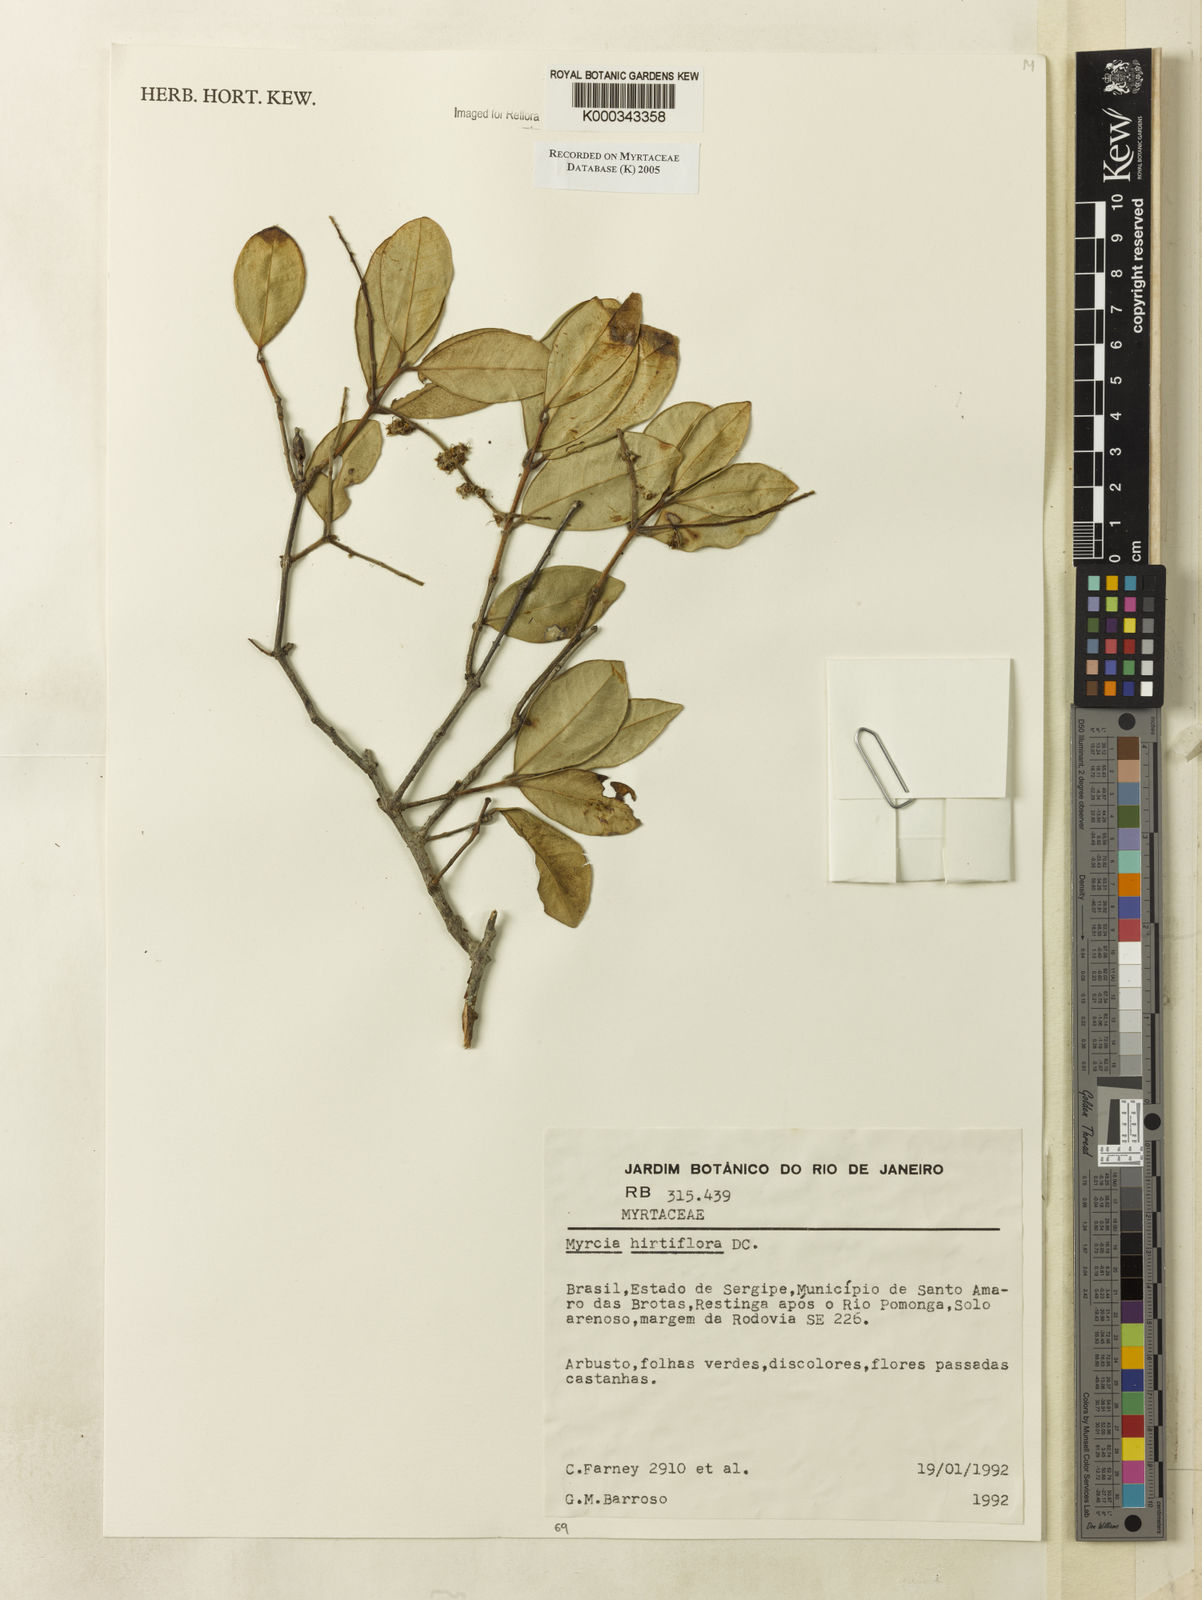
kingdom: Plantae
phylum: Tracheophyta
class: Magnoliopsida
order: Myrtales
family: Myrtaceae
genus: Myrcia
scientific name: Myrcia tomentosa
